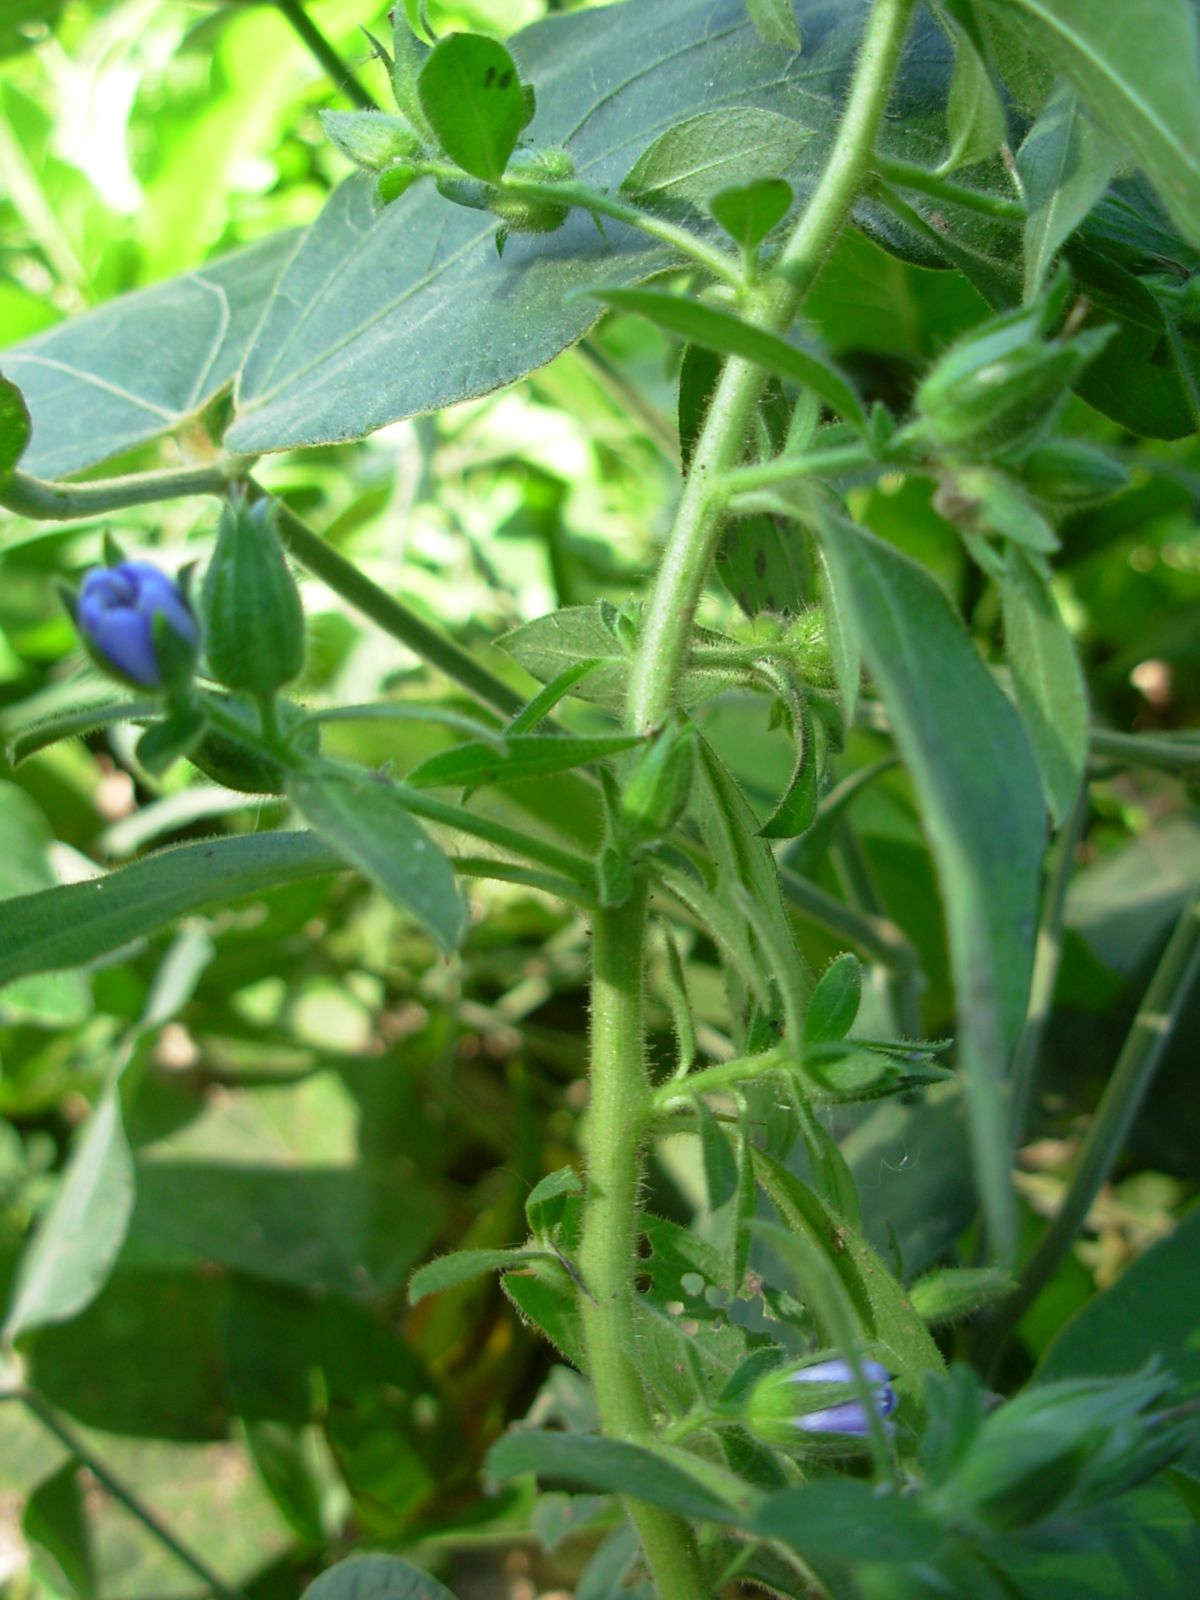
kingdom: Plantae
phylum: Tracheophyta
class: Magnoliopsida
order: Solanales
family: Hydroleaceae
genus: Hydrolea
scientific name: Hydrolea spinosa
